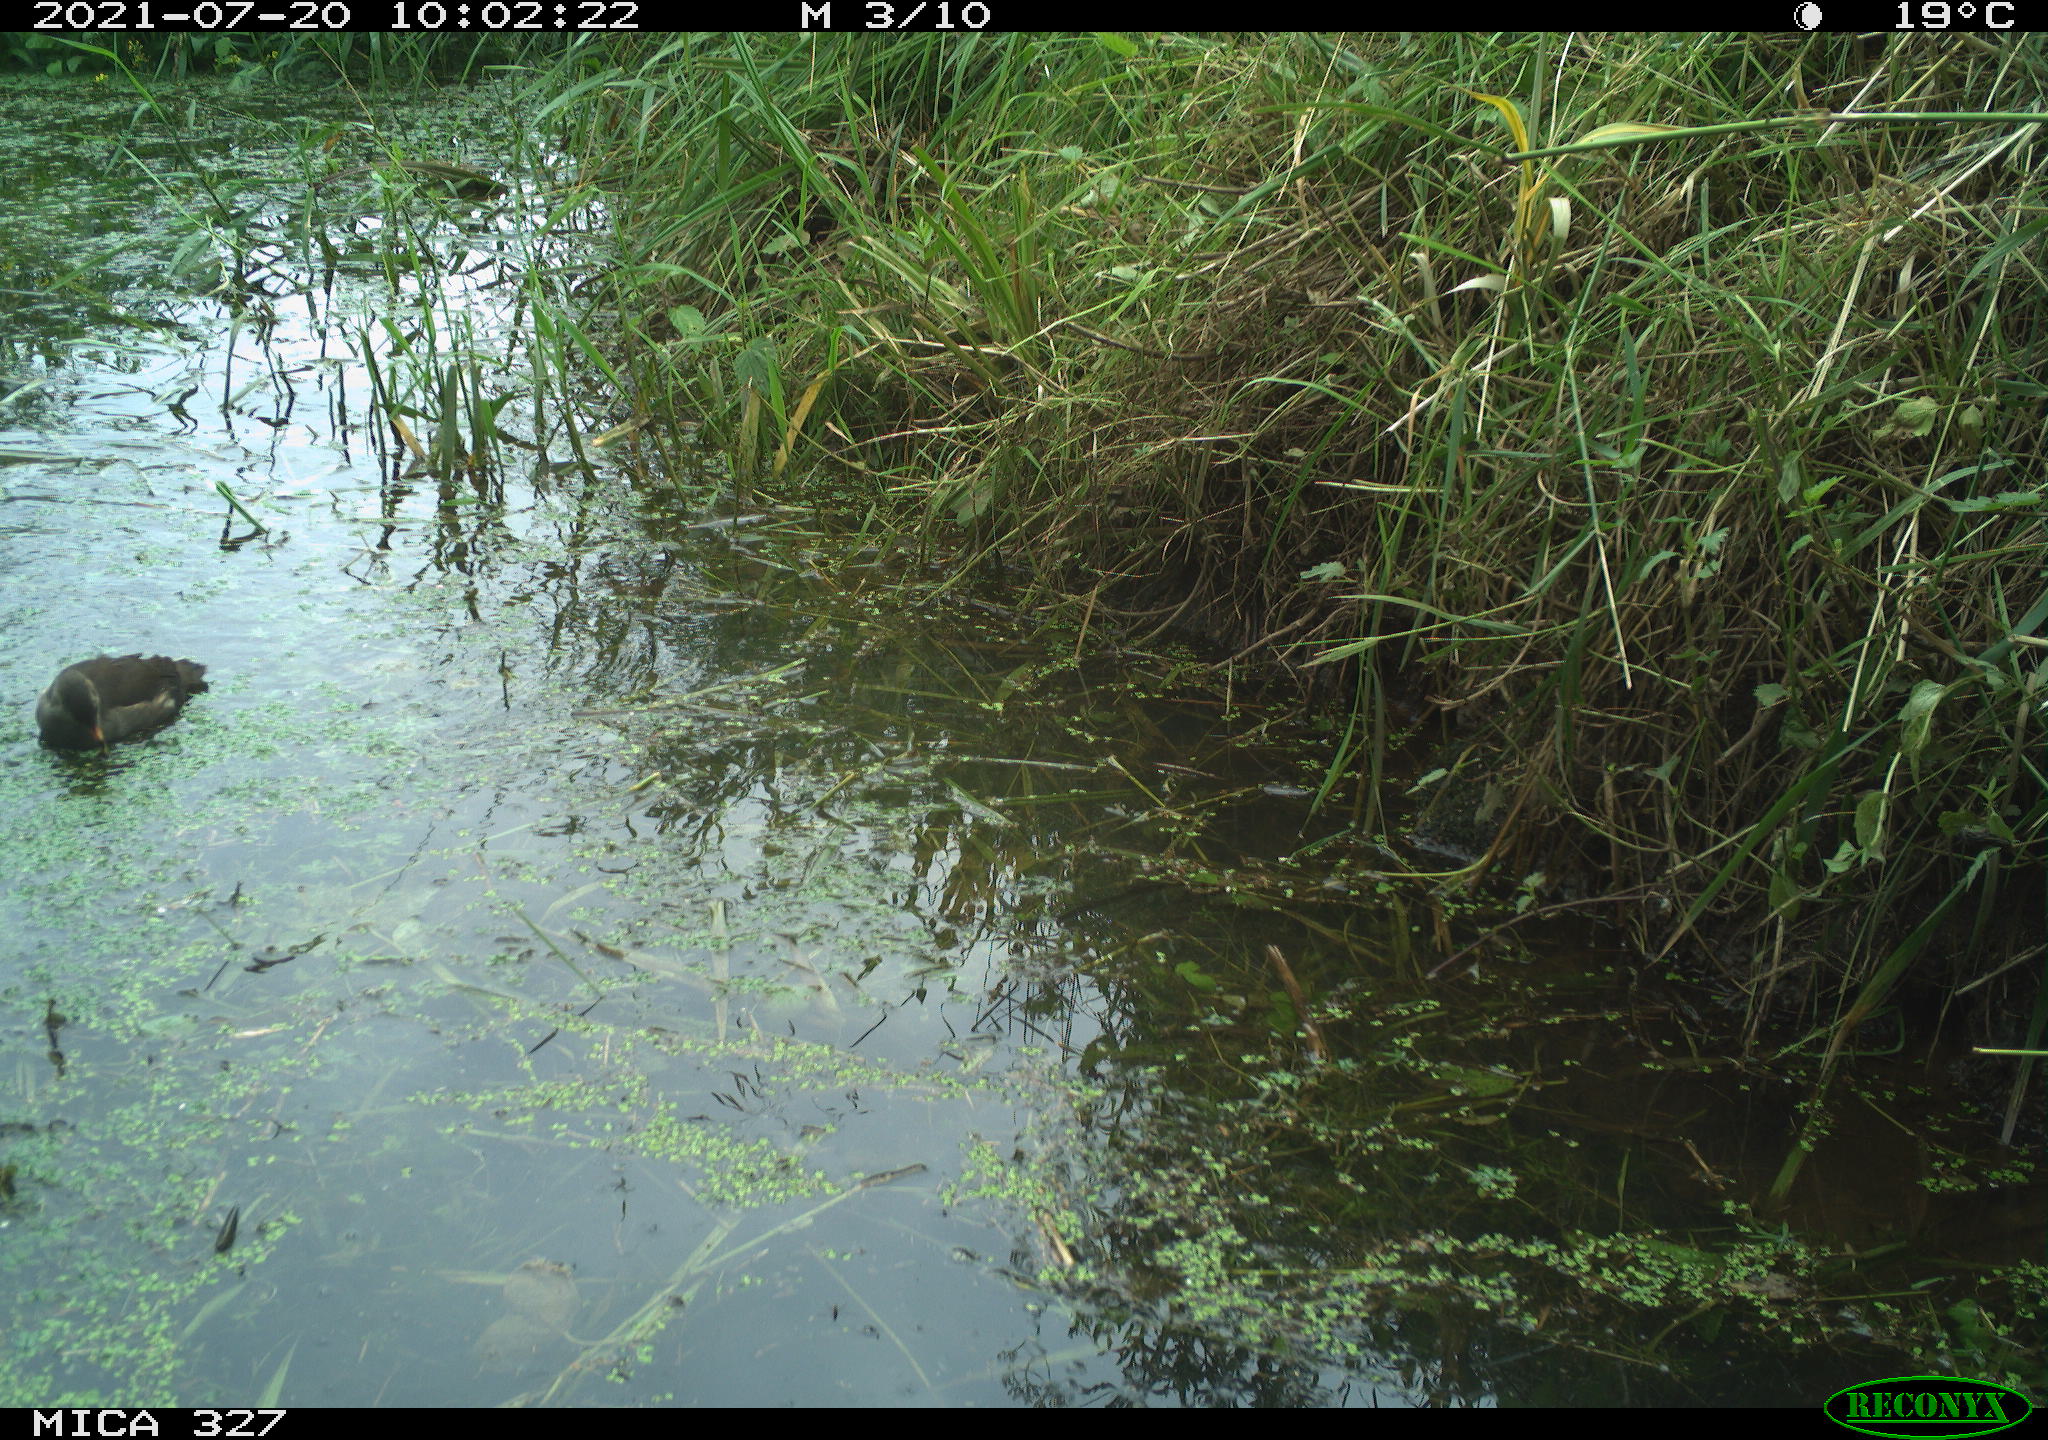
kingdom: Animalia
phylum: Chordata
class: Aves
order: Gruiformes
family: Rallidae
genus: Gallinula
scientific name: Gallinula chloropus
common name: Common moorhen
